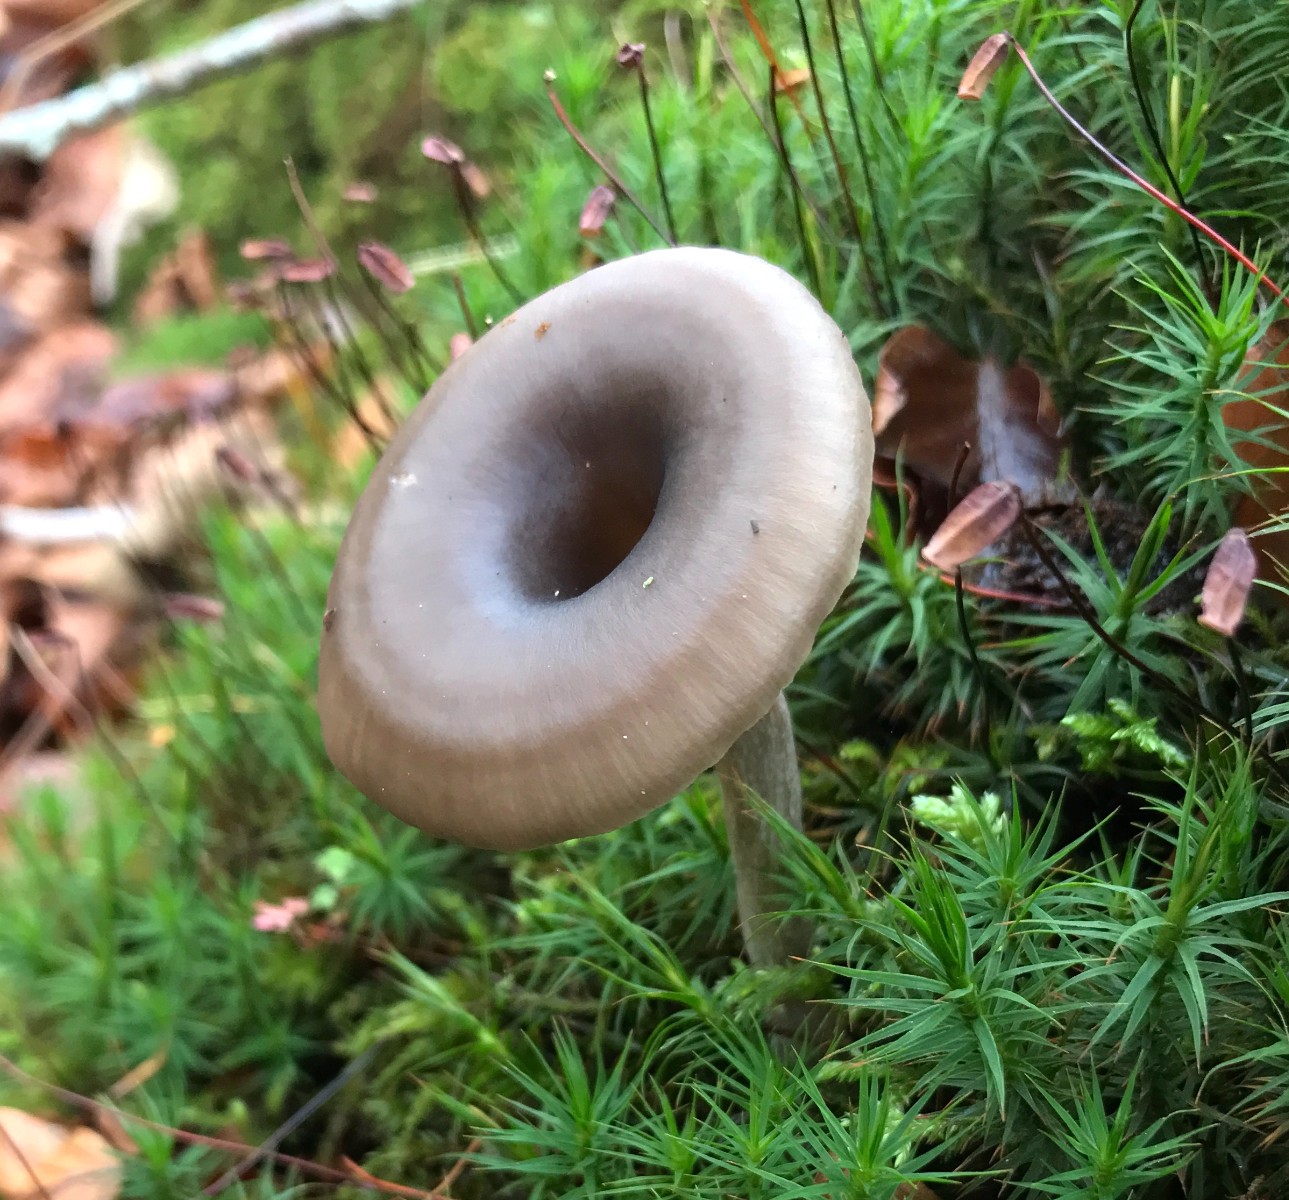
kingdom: Fungi
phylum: Basidiomycota
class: Agaricomycetes
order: Agaricales
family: Pseudoclitocybaceae
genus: Pseudoclitocybe
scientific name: Pseudoclitocybe cyathiformis
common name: almindelig bægertragthat
